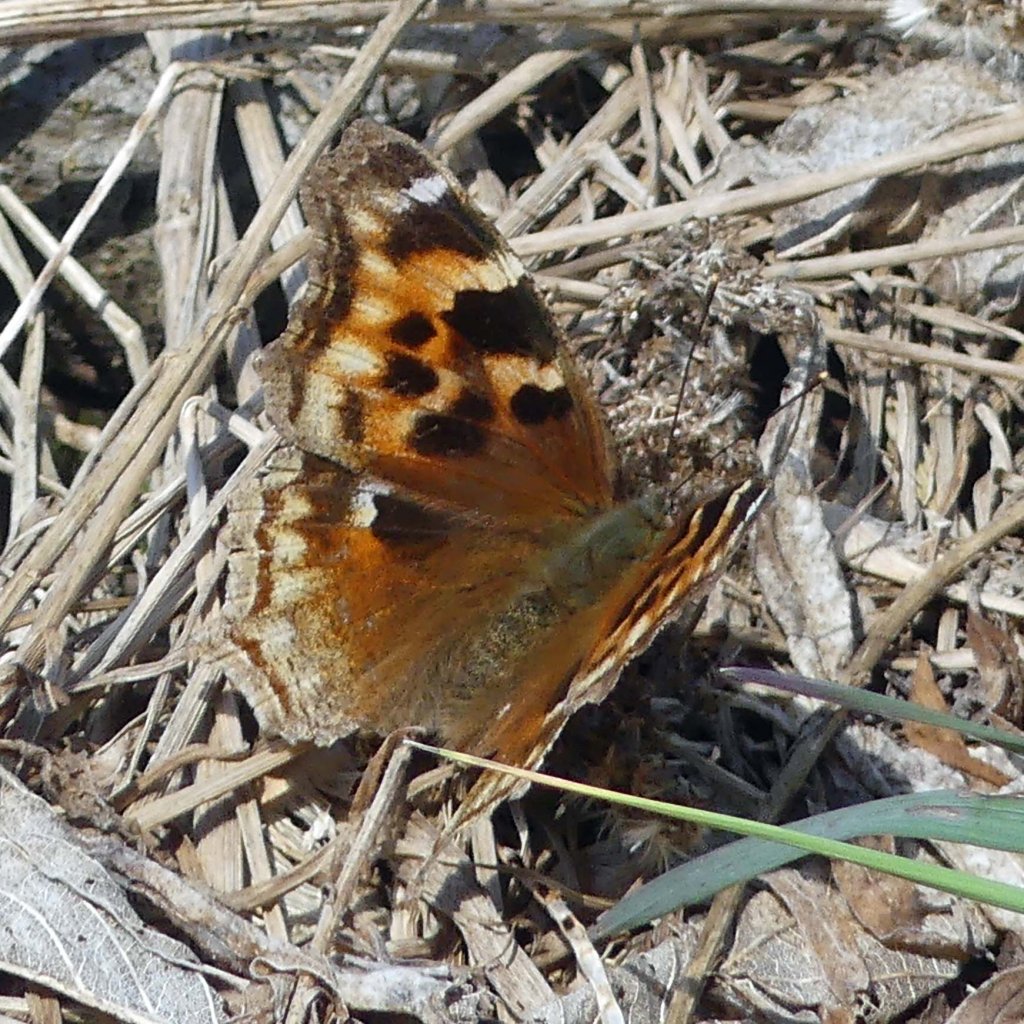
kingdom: Animalia
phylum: Arthropoda
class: Insecta
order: Lepidoptera
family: Nymphalidae
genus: Polygonia
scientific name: Polygonia vaualbum
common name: Compton Tortoiseshell
